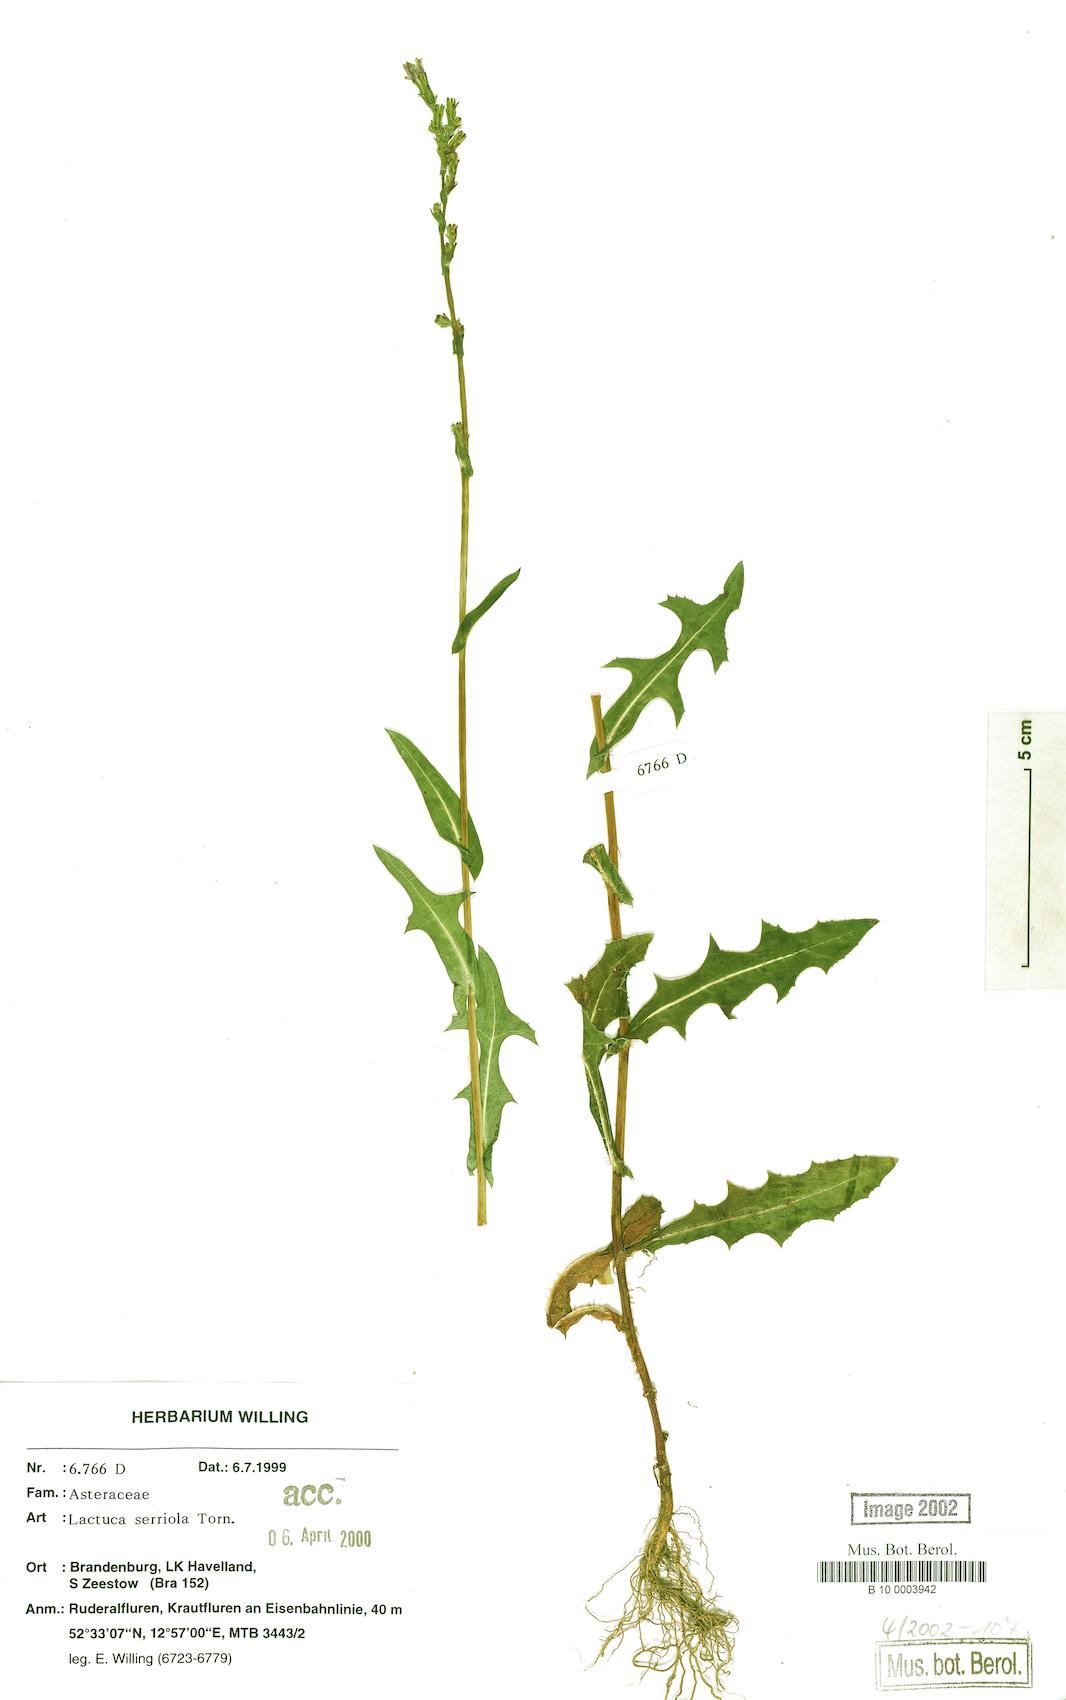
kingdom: Plantae
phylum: Tracheophyta
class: Magnoliopsida
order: Asterales
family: Asteraceae
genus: Lactuca
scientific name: Lactuca serriola
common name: Prickly lettuce
